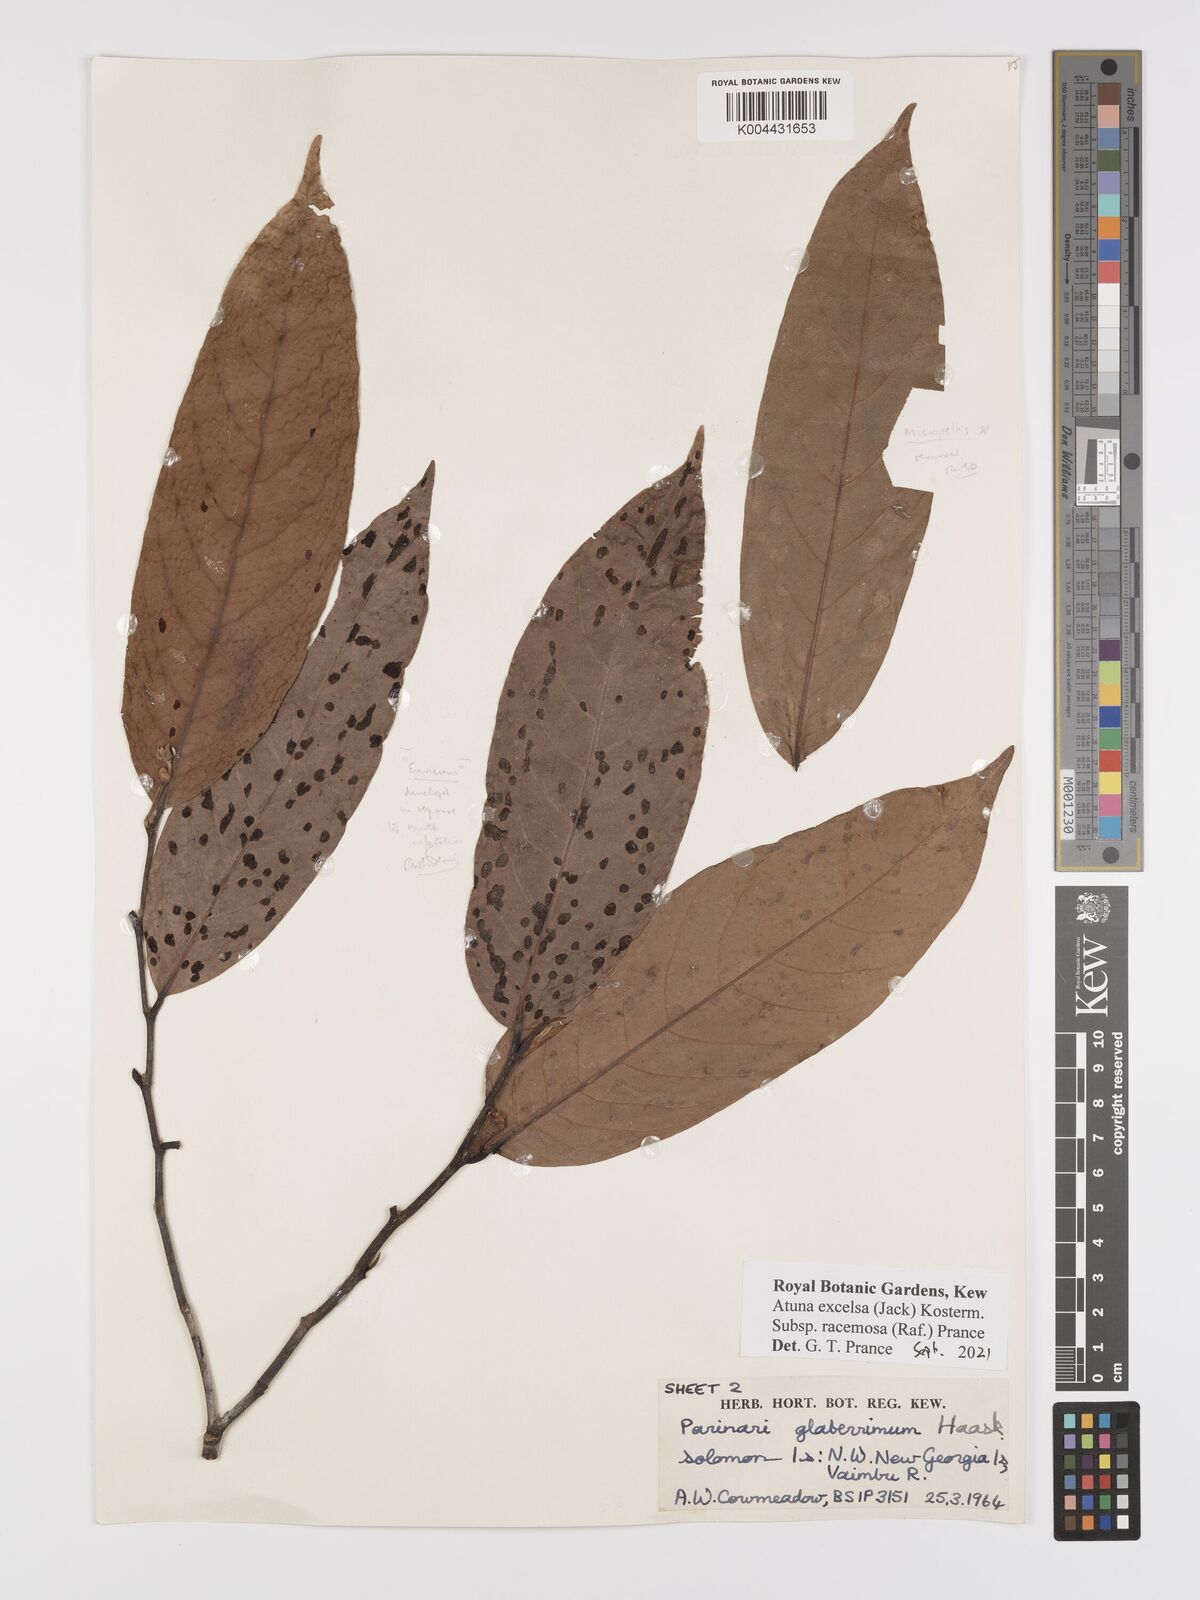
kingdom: Plantae
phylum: Tracheophyta
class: Magnoliopsida
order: Malpighiales
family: Chrysobalanaceae
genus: Atuna
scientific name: Atuna excelsa
